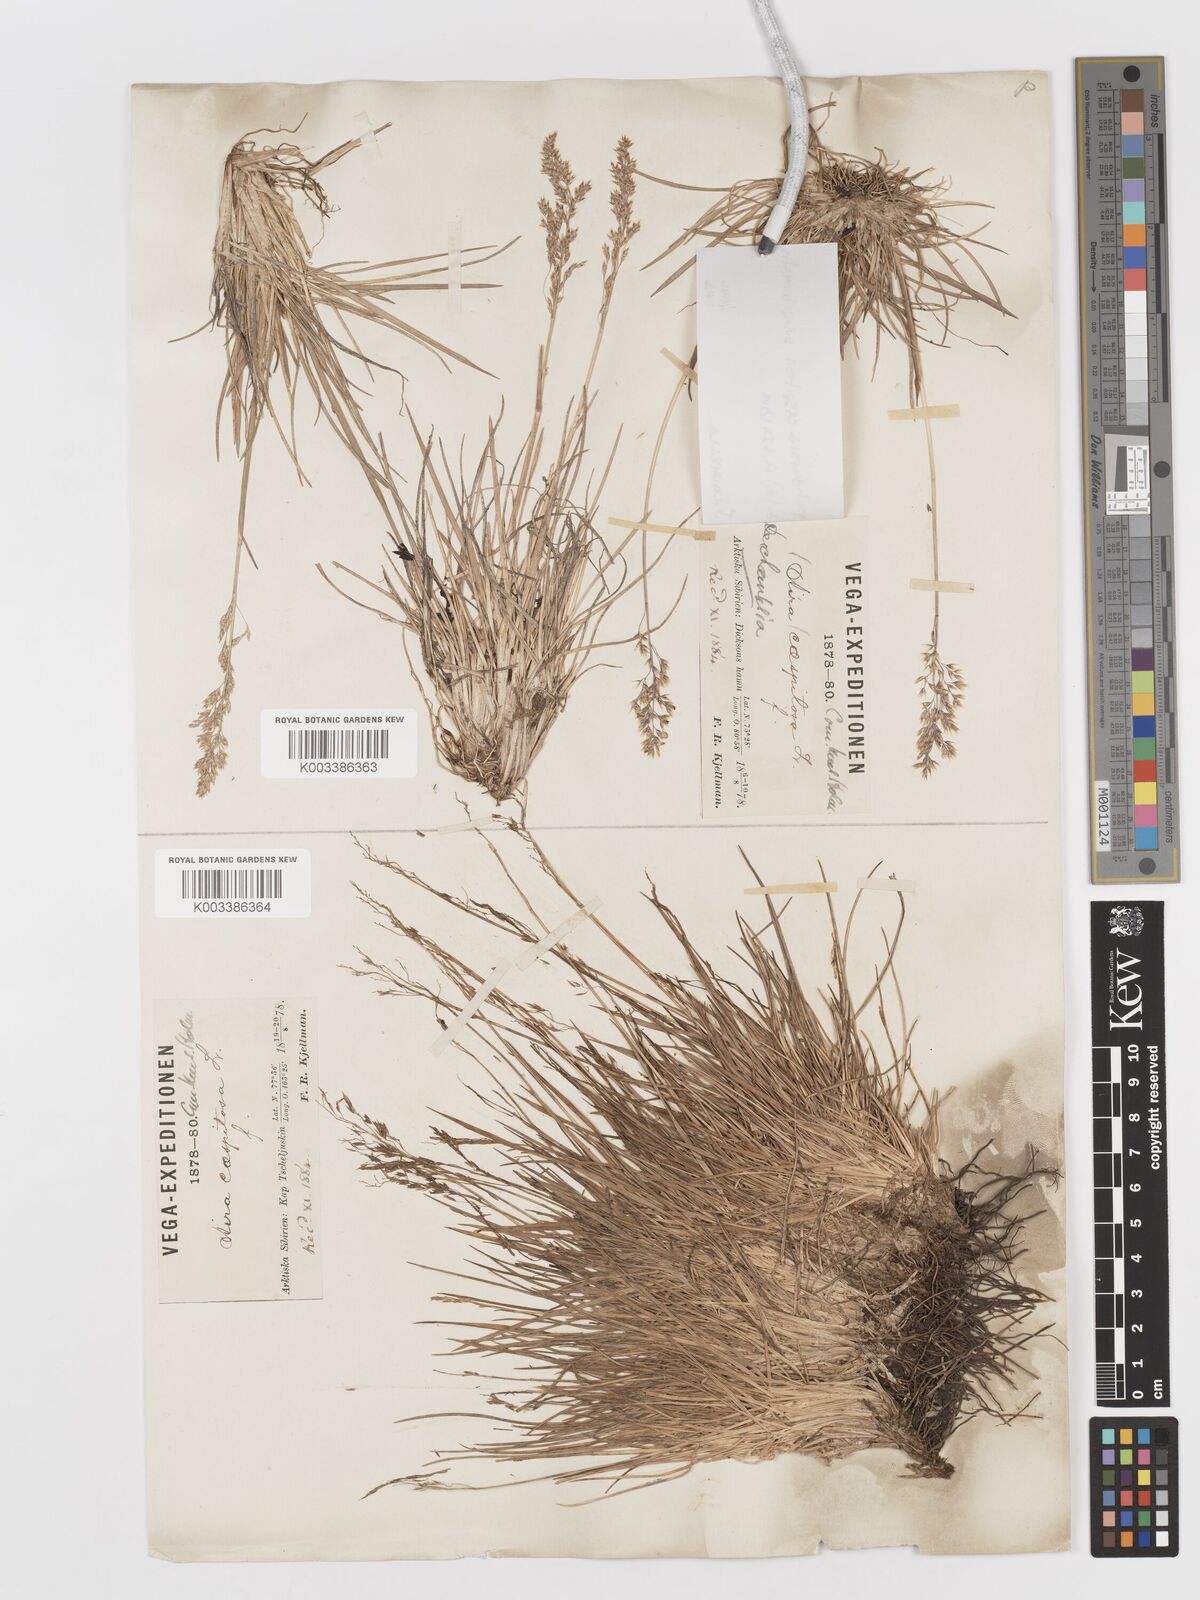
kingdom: Plantae
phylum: Tracheophyta
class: Liliopsida
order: Poales
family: Poaceae
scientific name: Poaceae
